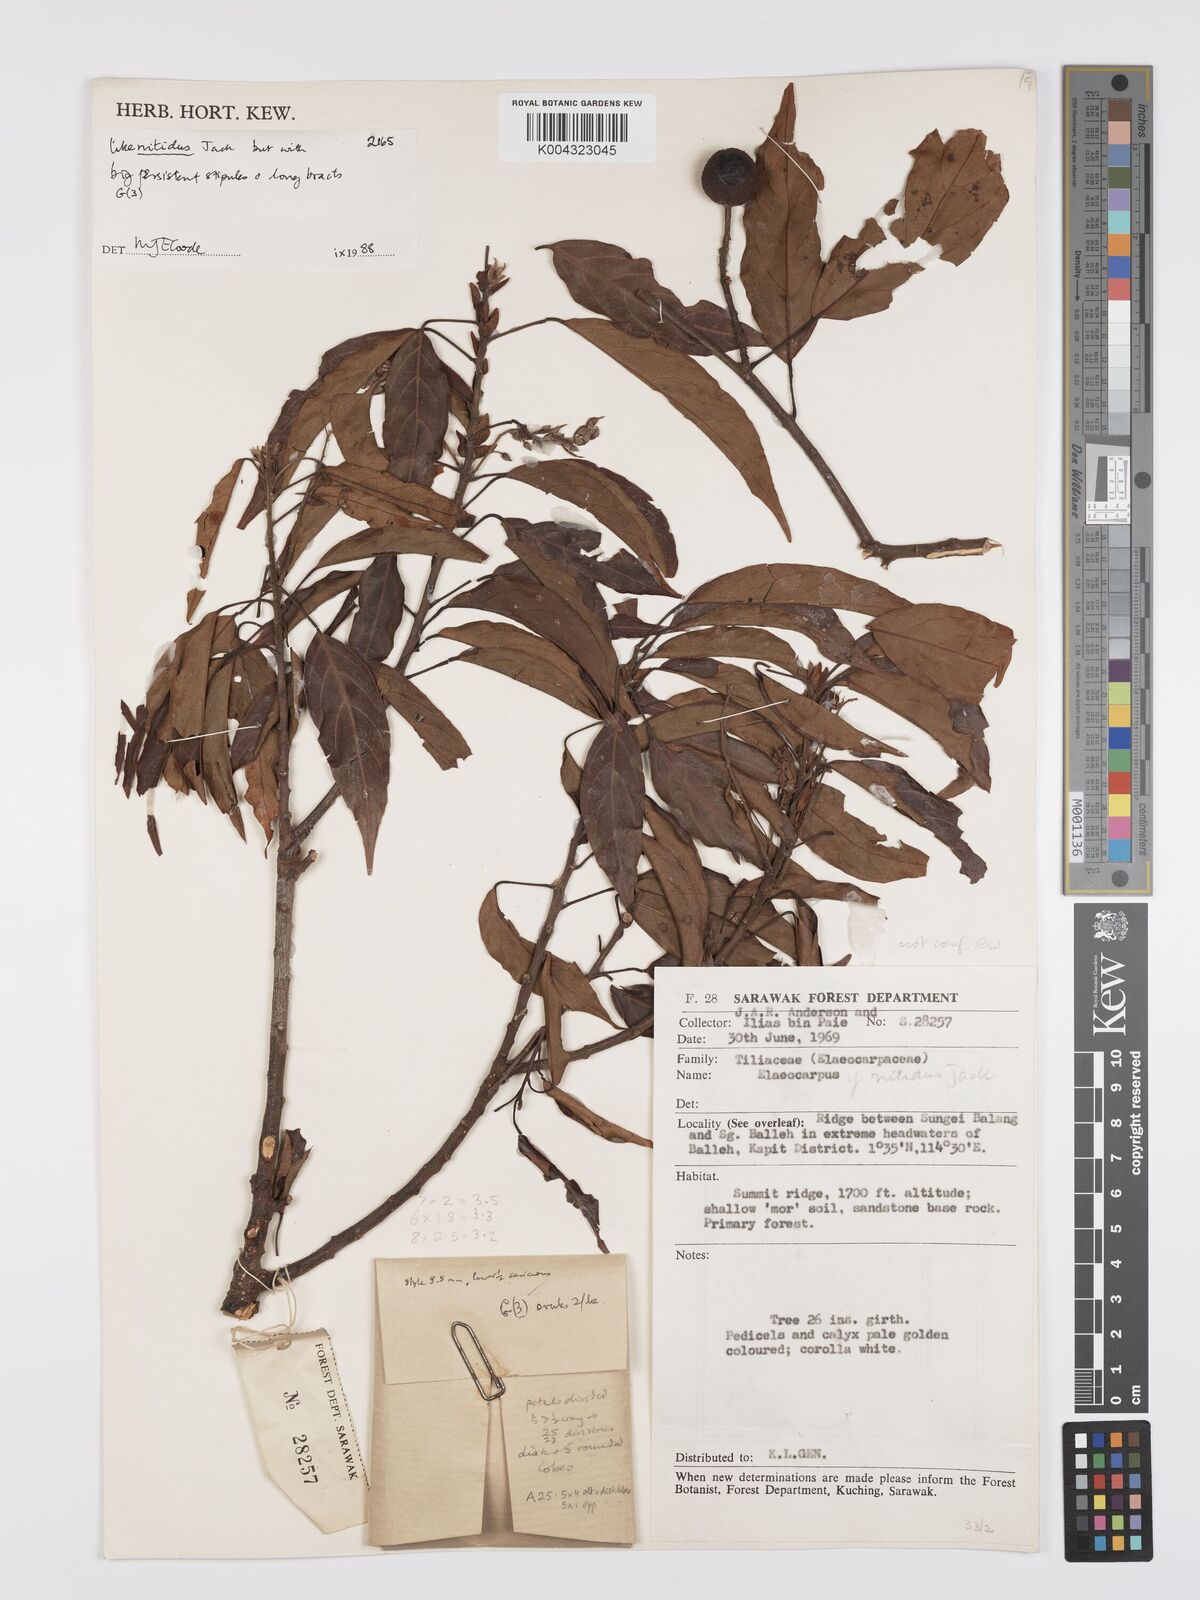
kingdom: Plantae
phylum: Tracheophyta
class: Magnoliopsida
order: Oxalidales
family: Elaeocarpaceae
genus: Elaeocarpus
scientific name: Elaeocarpus barbulatus
